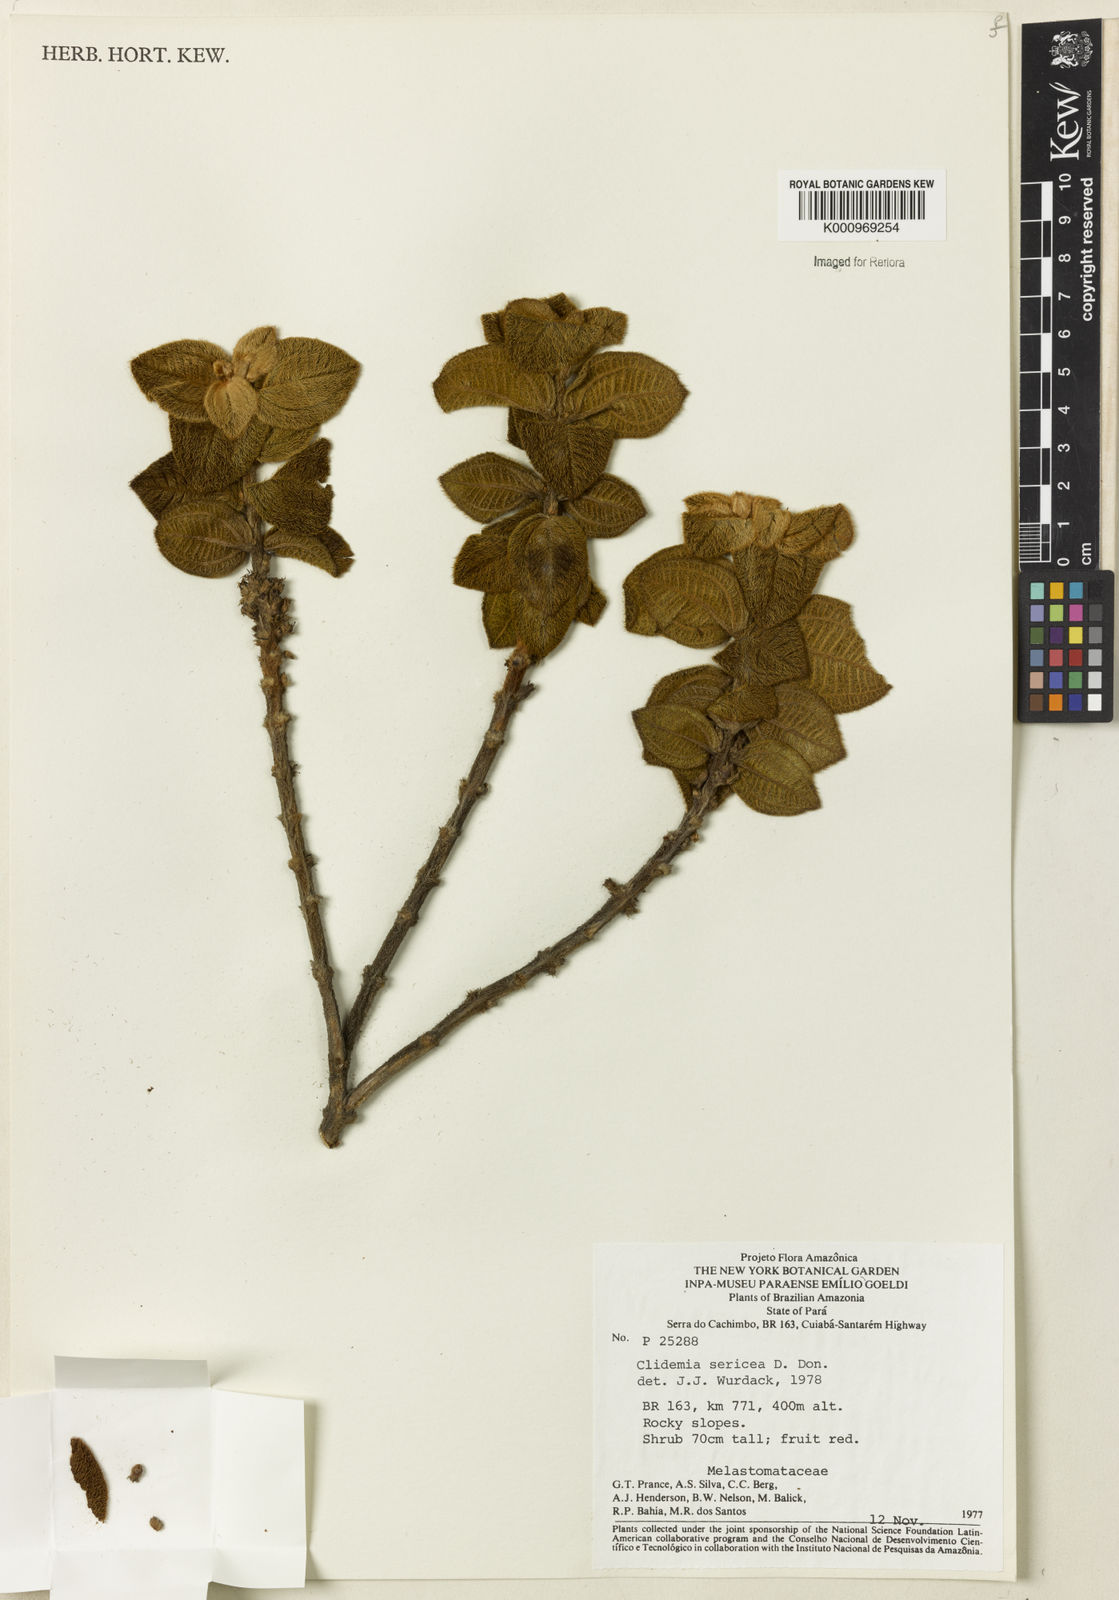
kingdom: Plantae
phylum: Tracheophyta
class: Magnoliopsida
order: Myrtales
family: Melastomataceae
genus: Miconia
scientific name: Miconia sericea
